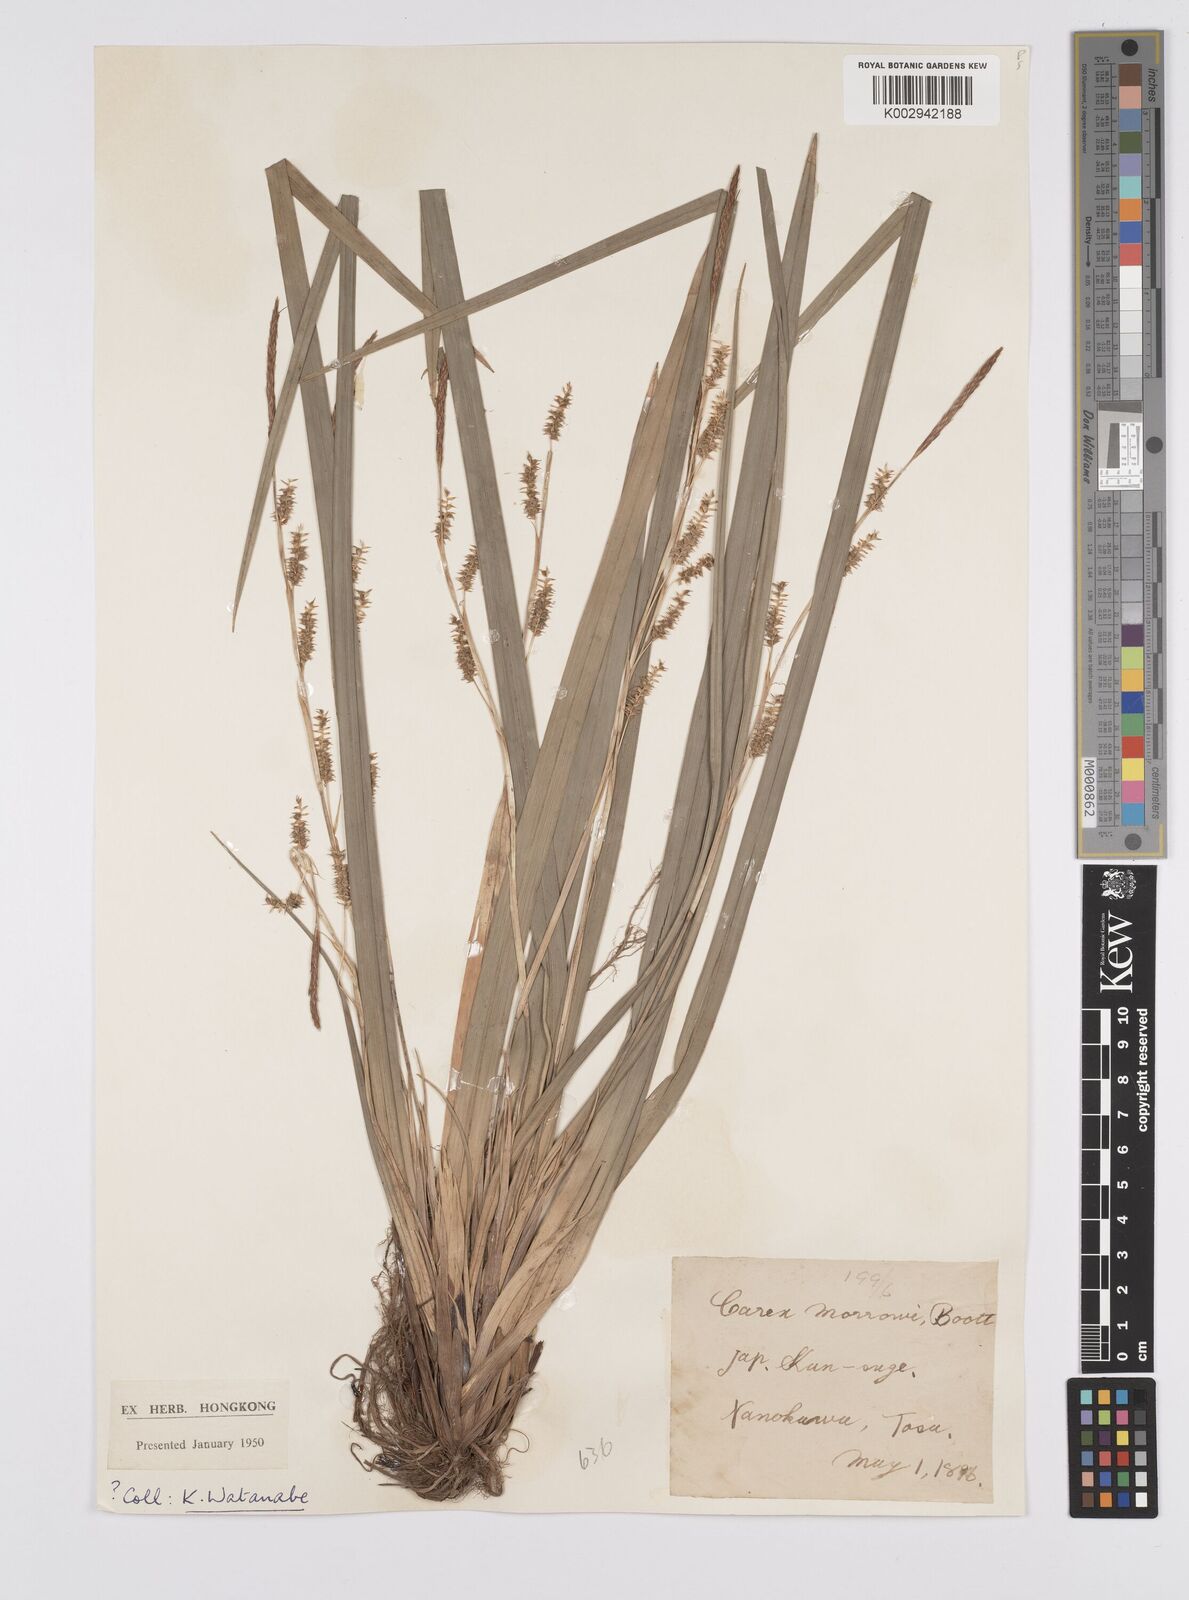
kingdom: Plantae
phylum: Tracheophyta
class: Liliopsida
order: Poales
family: Cyperaceae
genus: Carex
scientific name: Carex morrowii
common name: Japanese sedge
